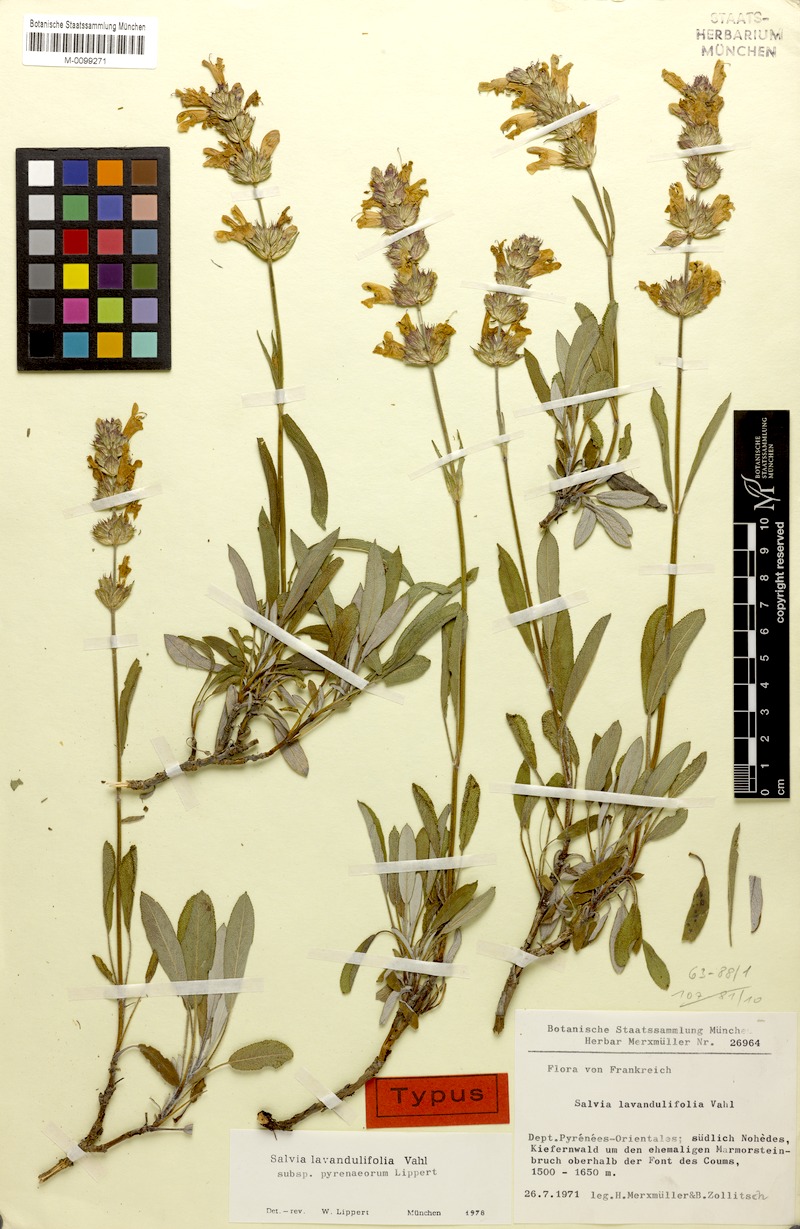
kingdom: Plantae
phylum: Tracheophyta
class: Magnoliopsida
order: Lamiales
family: Lamiaceae
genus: Salvia
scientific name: Salvia officinalis
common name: Sage
